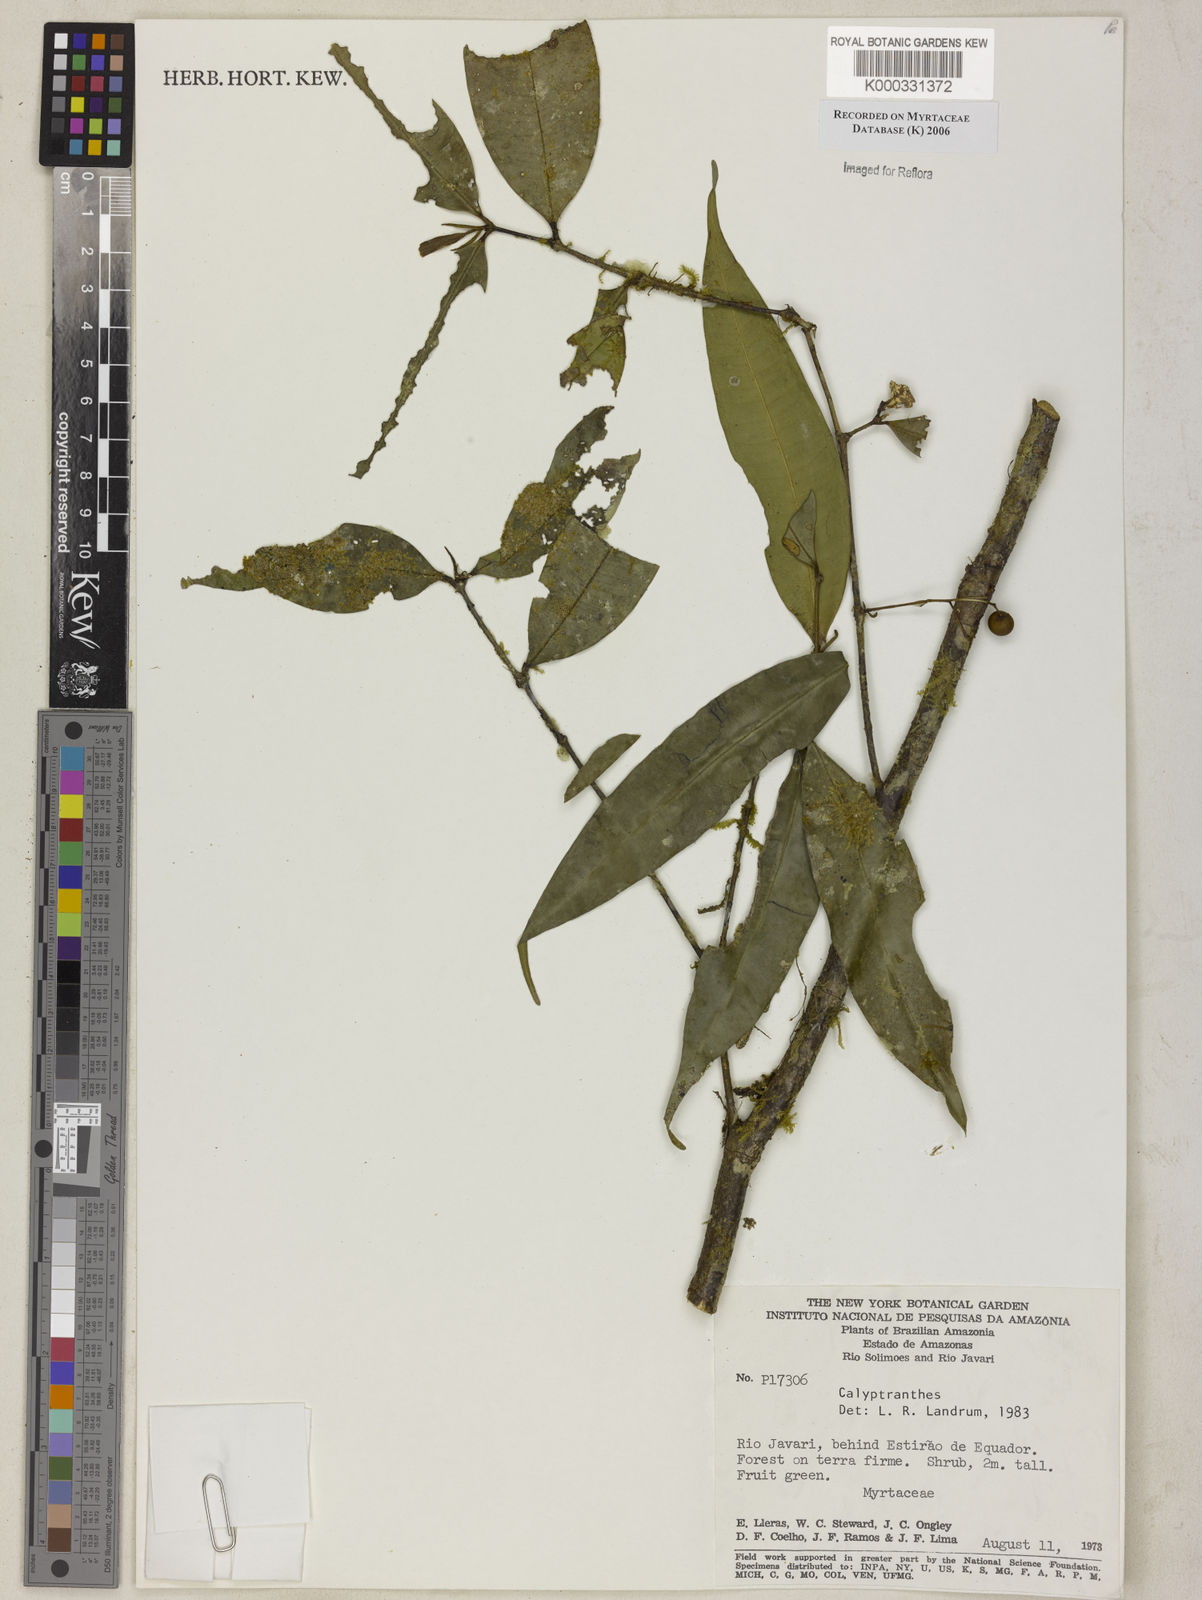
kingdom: Plantae
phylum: Tracheophyta
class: Magnoliopsida
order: Myrtales
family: Myrtaceae
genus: Calyptranthes
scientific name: Calyptranthes
